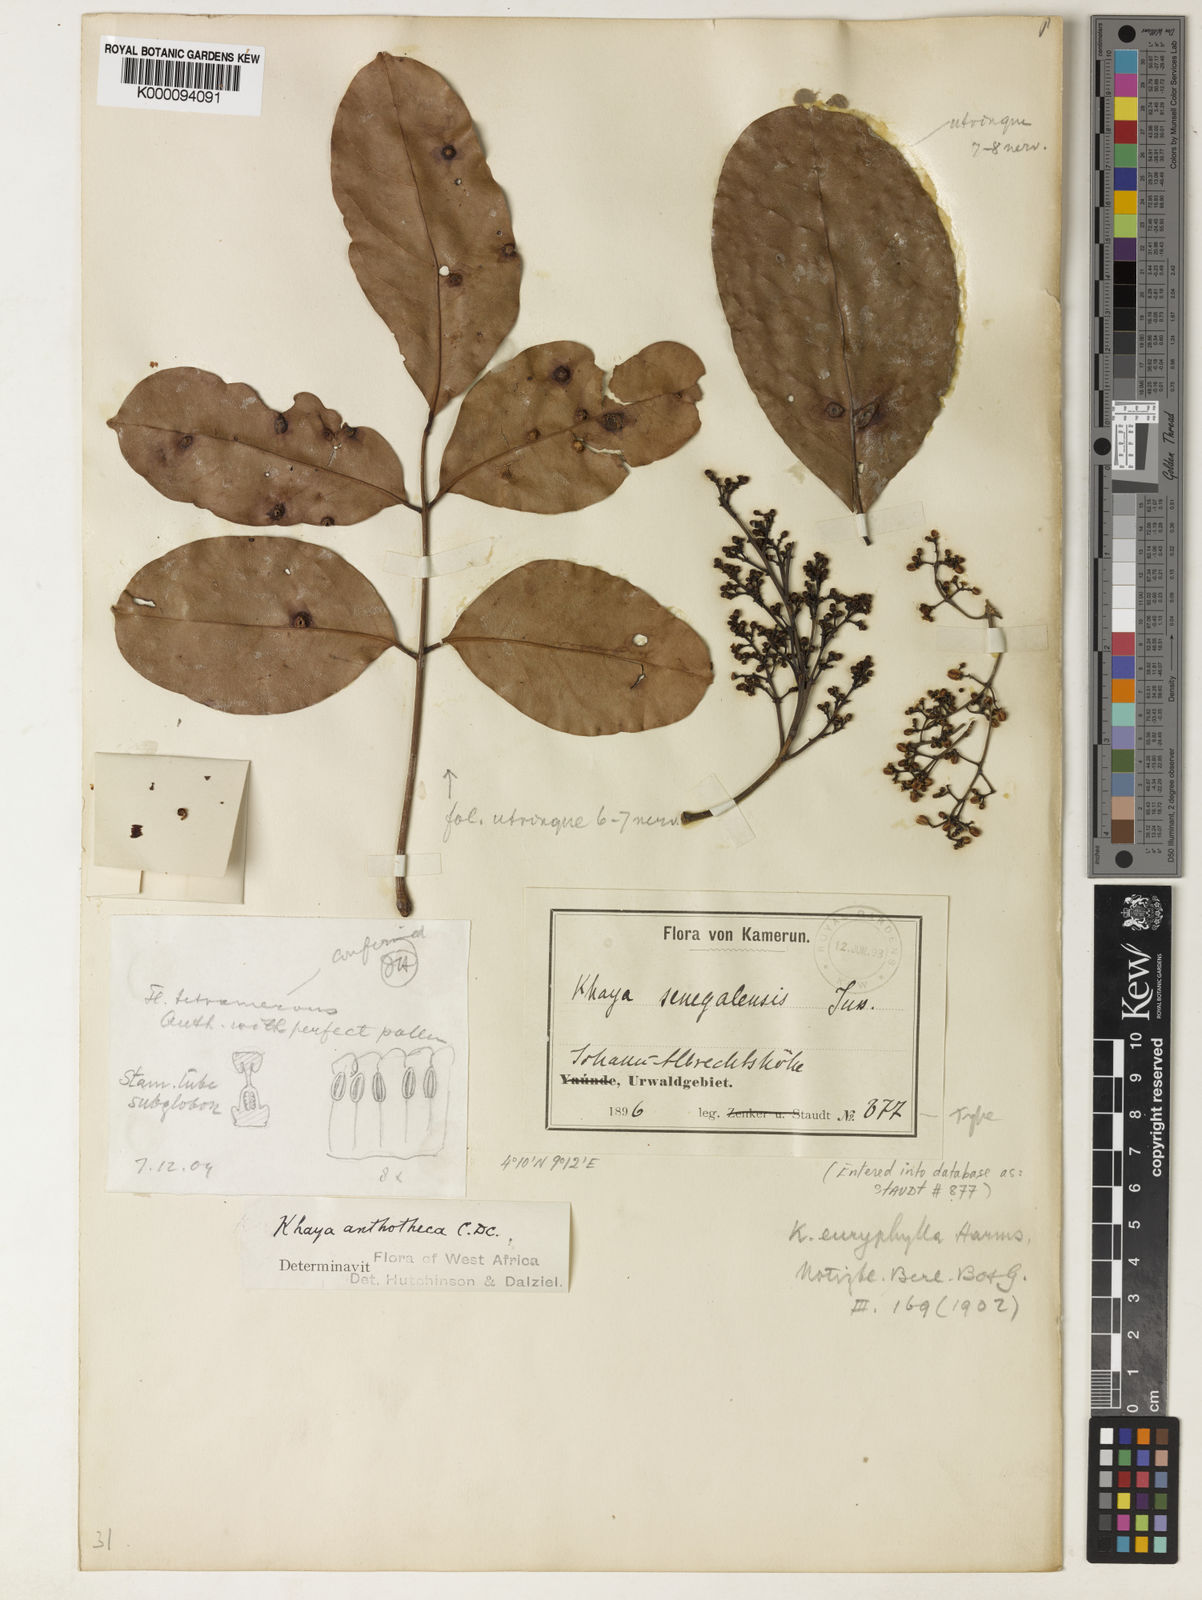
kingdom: Plantae
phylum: Tracheophyta
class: Magnoliopsida
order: Sapindales
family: Meliaceae
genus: Khaya
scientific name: Khaya euryphylla
